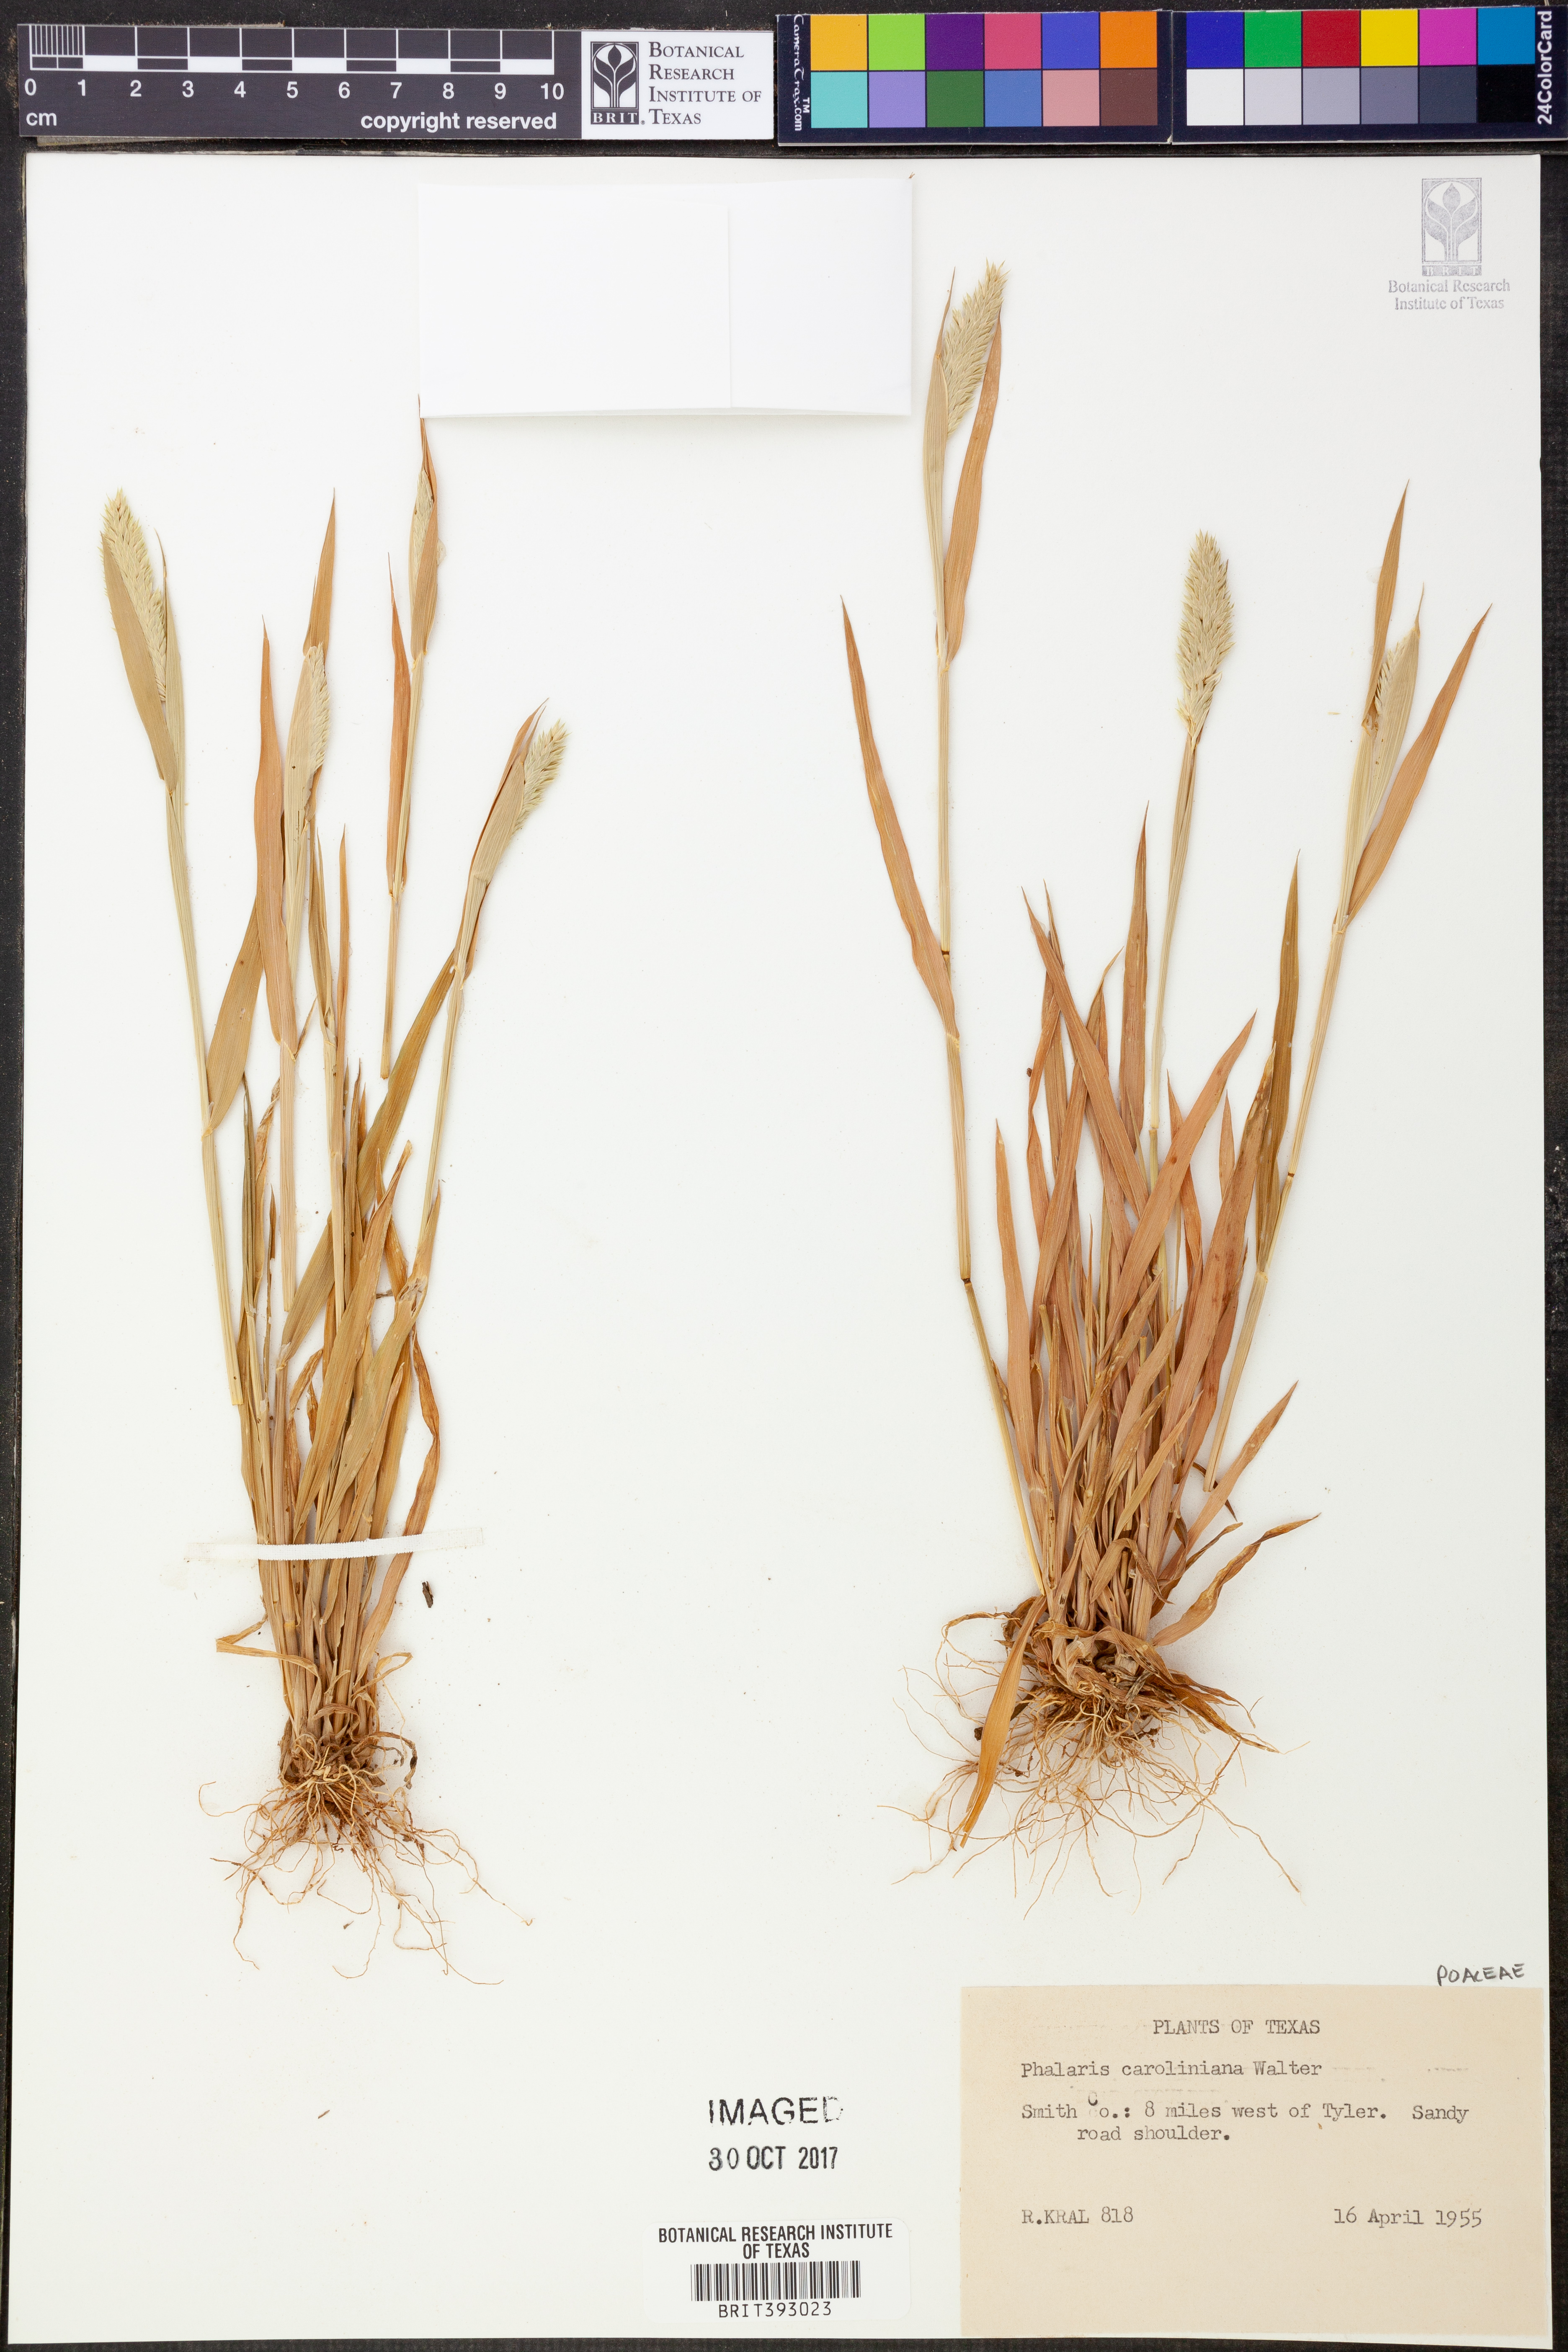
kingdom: Plantae
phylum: Tracheophyta
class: Liliopsida
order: Poales
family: Poaceae
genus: Phalaris
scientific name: Phalaris caroliniana
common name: May grass
